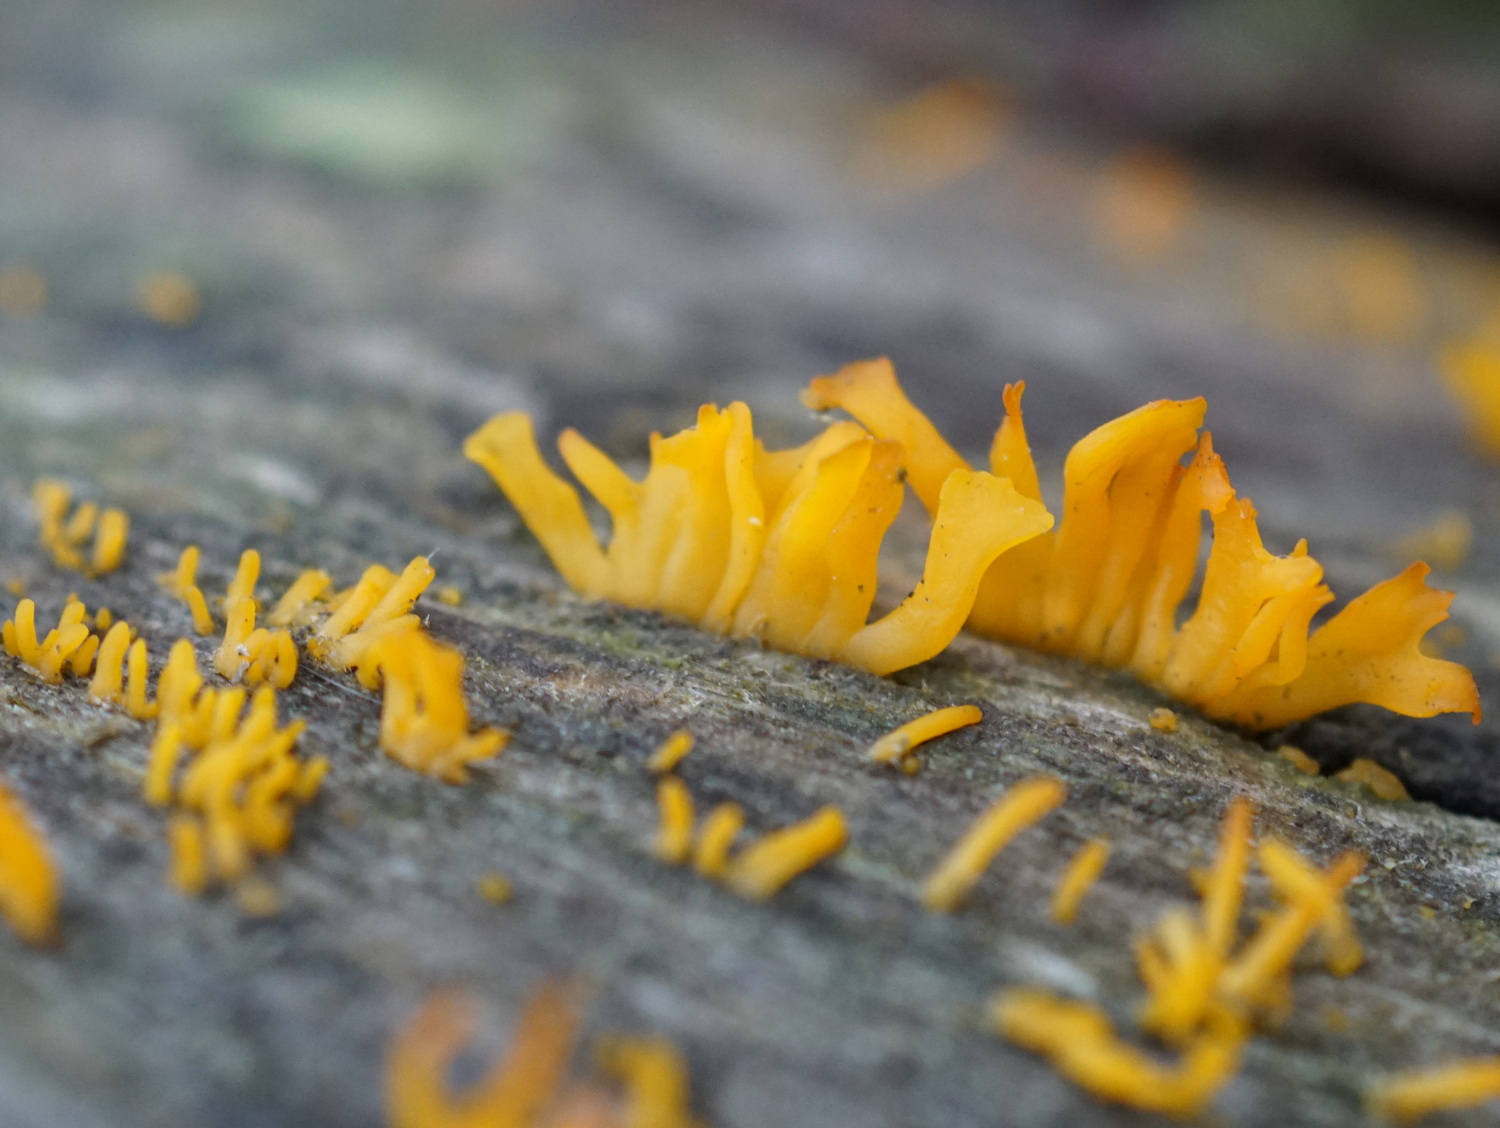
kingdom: Fungi
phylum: Basidiomycota
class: Dacrymycetes
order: Dacrymycetales
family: Dacrymycetaceae
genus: Calocera
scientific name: Calocera furcata
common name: fyrre-guldgaffel
